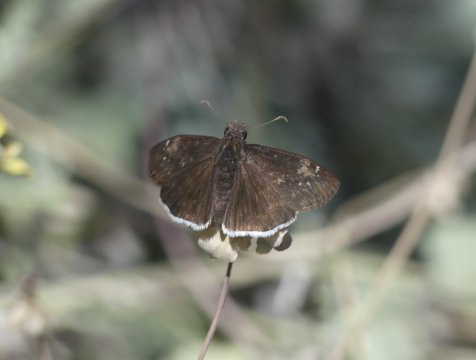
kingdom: Animalia
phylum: Arthropoda
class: Insecta
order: Lepidoptera
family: Hesperiidae
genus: Erynnis
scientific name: Erynnis funeralis
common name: Funereal Duskywing
